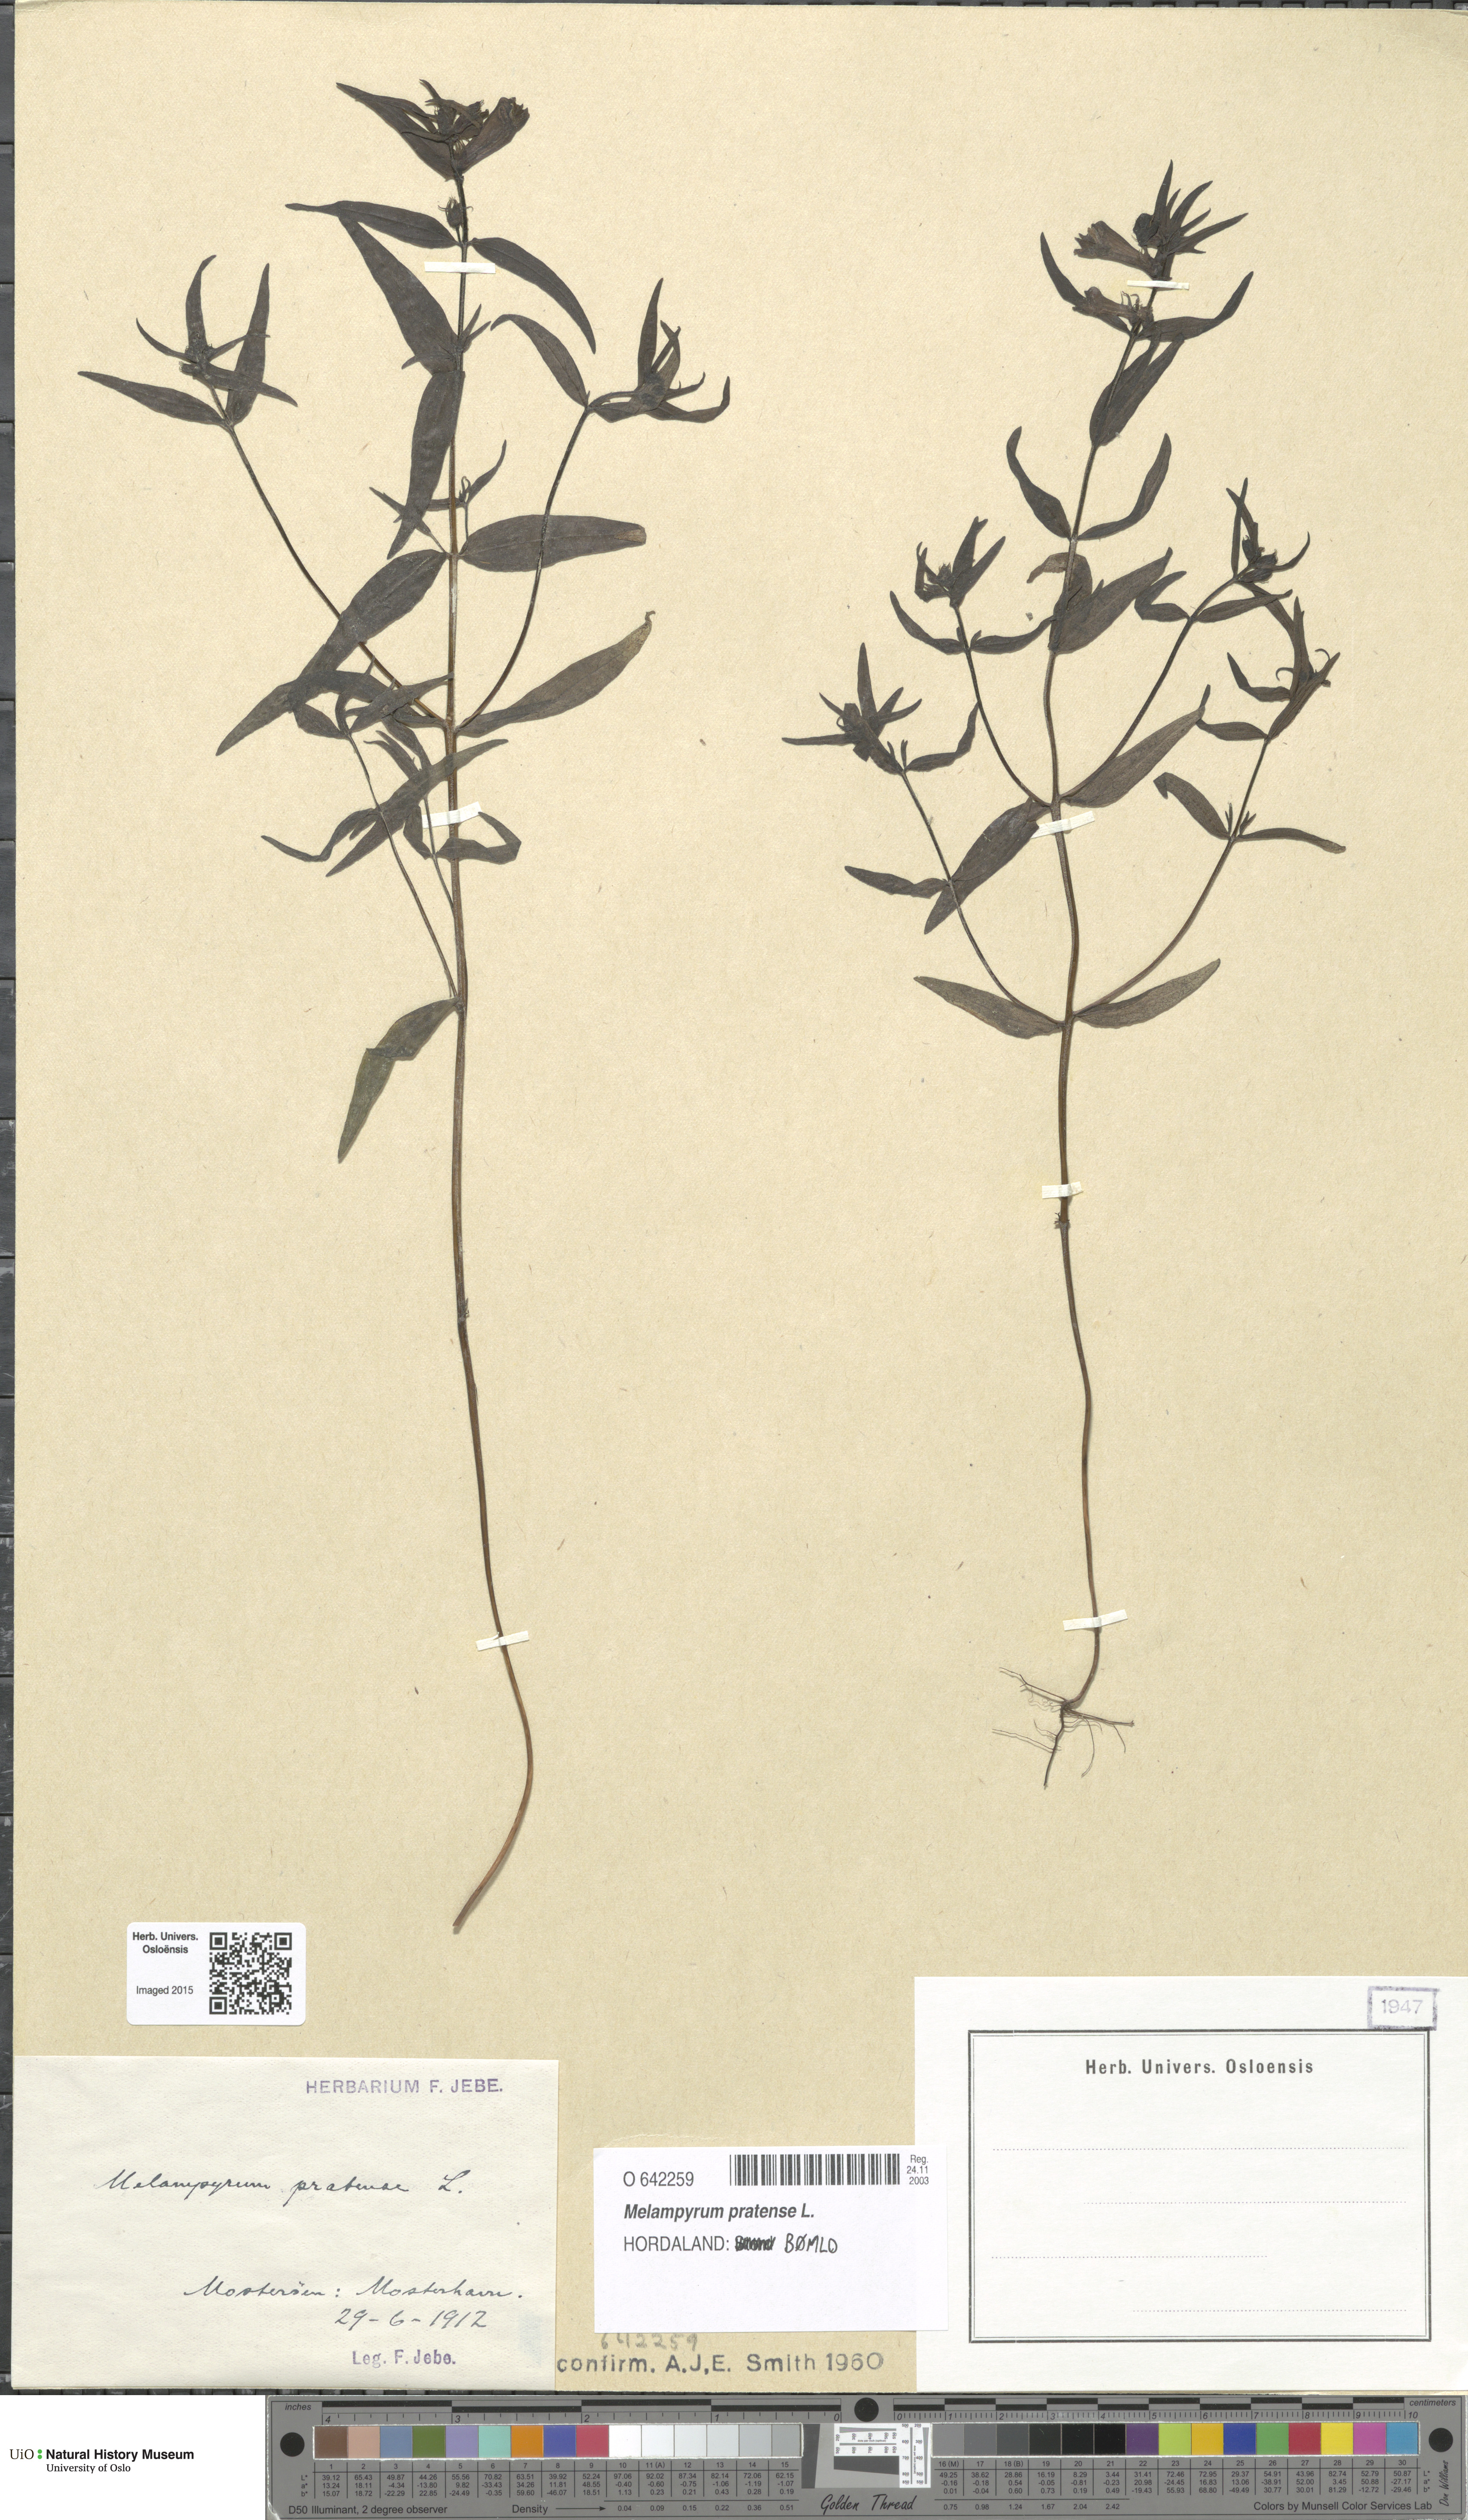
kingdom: Plantae
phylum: Tracheophyta
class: Magnoliopsida
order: Lamiales
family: Orobanchaceae
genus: Melampyrum
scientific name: Melampyrum pratense
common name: Common cow-wheat
